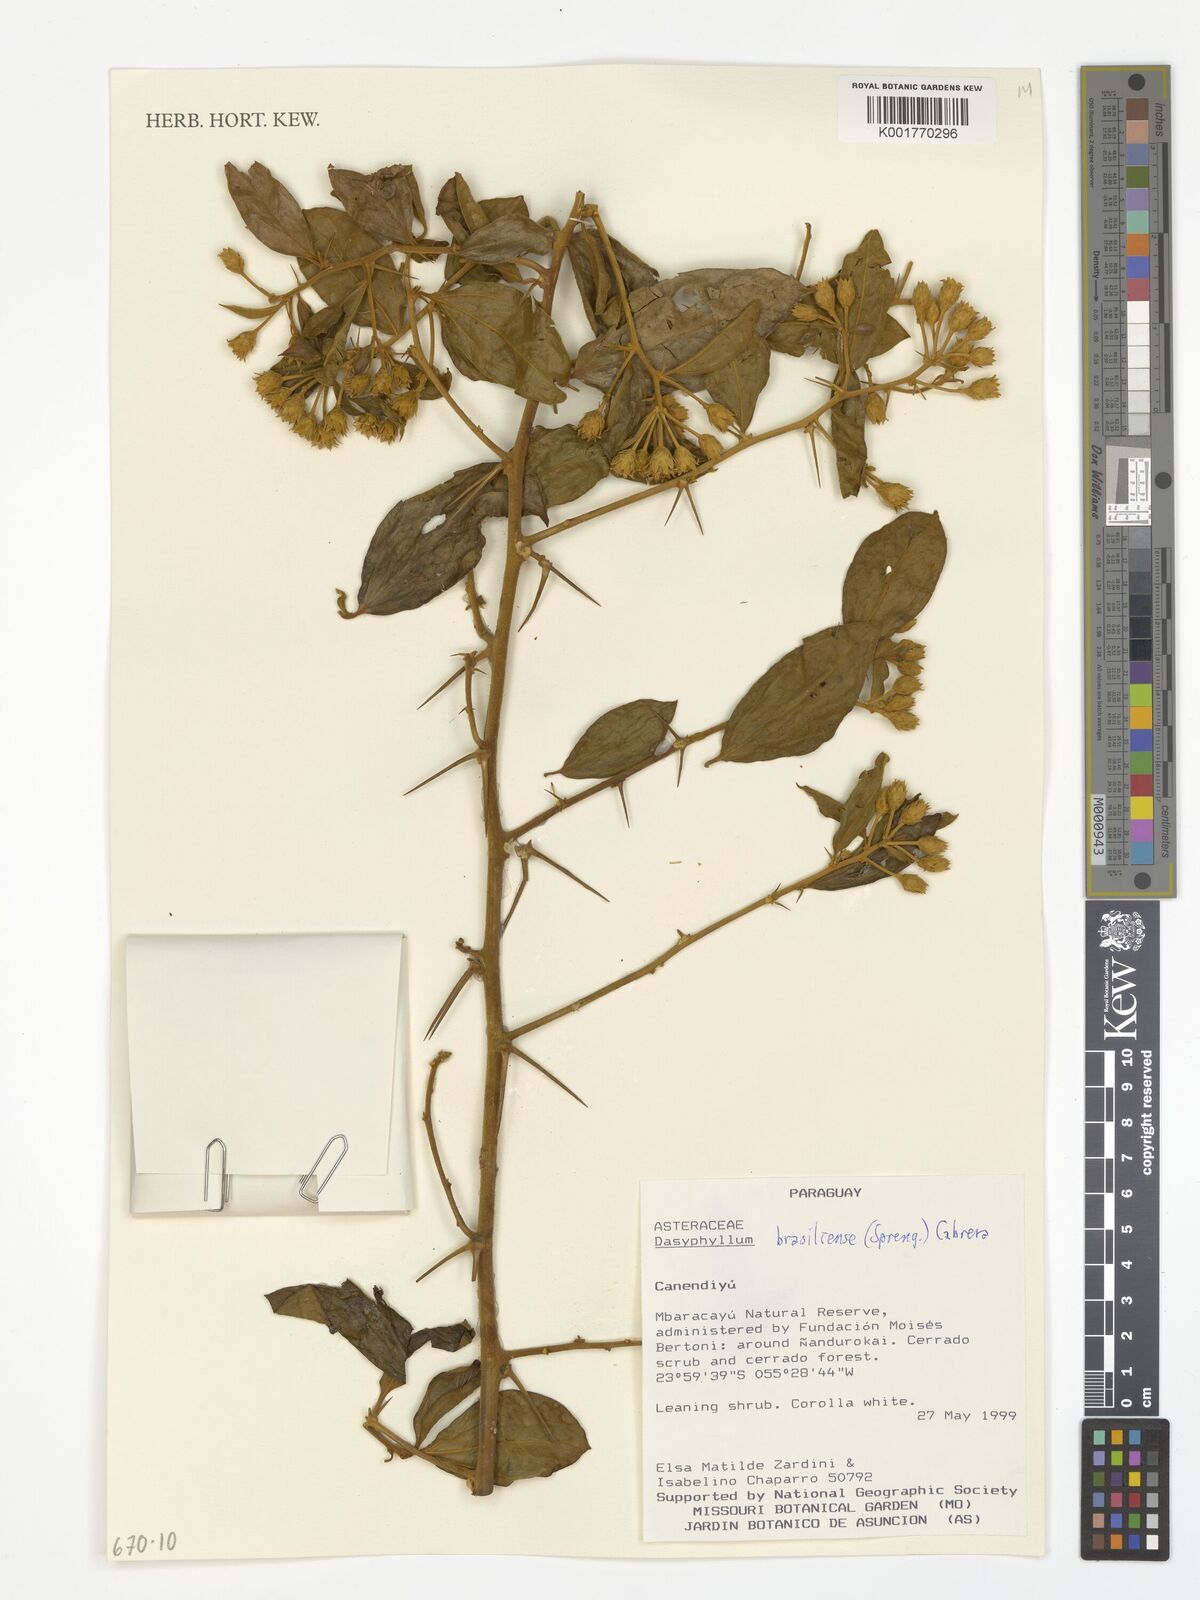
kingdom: Plantae
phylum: Tracheophyta
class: Magnoliopsida
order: Asterales
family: Asteraceae
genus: Dasyphyllum
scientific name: Dasyphyllum brasiliense
